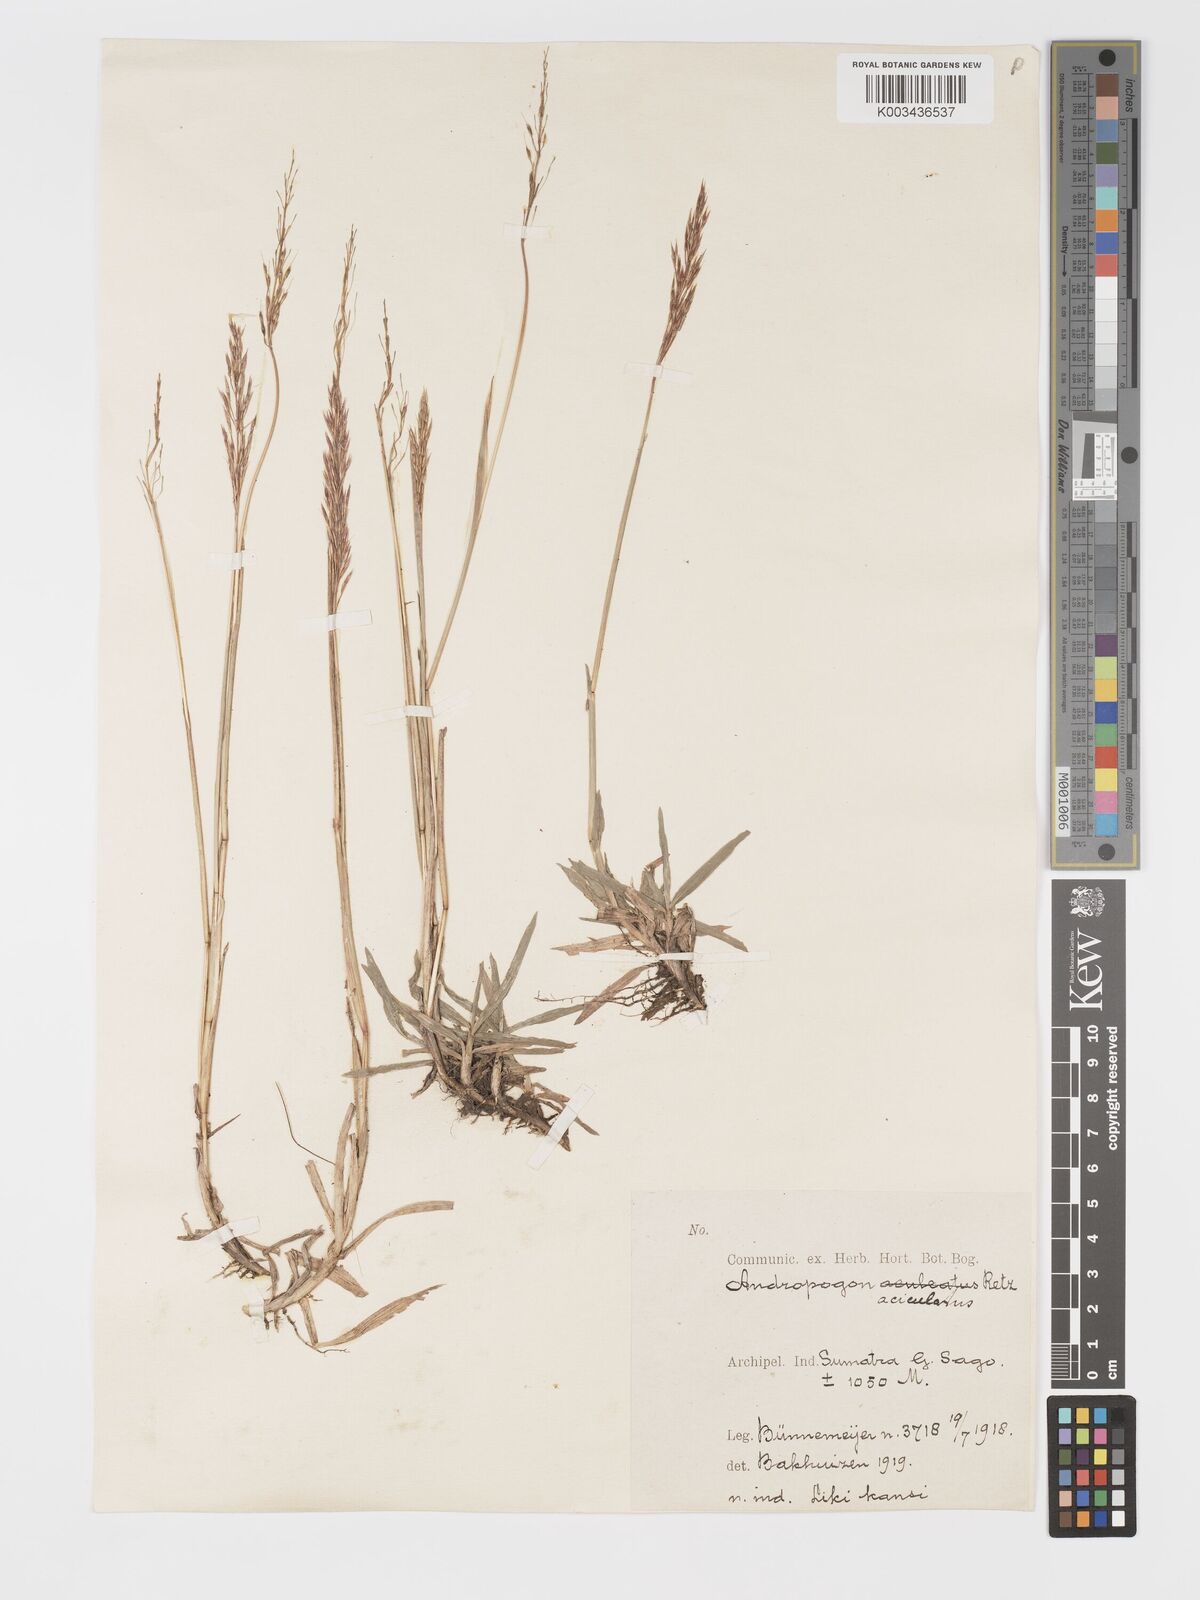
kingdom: Plantae
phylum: Tracheophyta
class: Liliopsida
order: Poales
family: Poaceae
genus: Chrysopogon
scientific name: Chrysopogon aciculatus
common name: Pilipiliula
